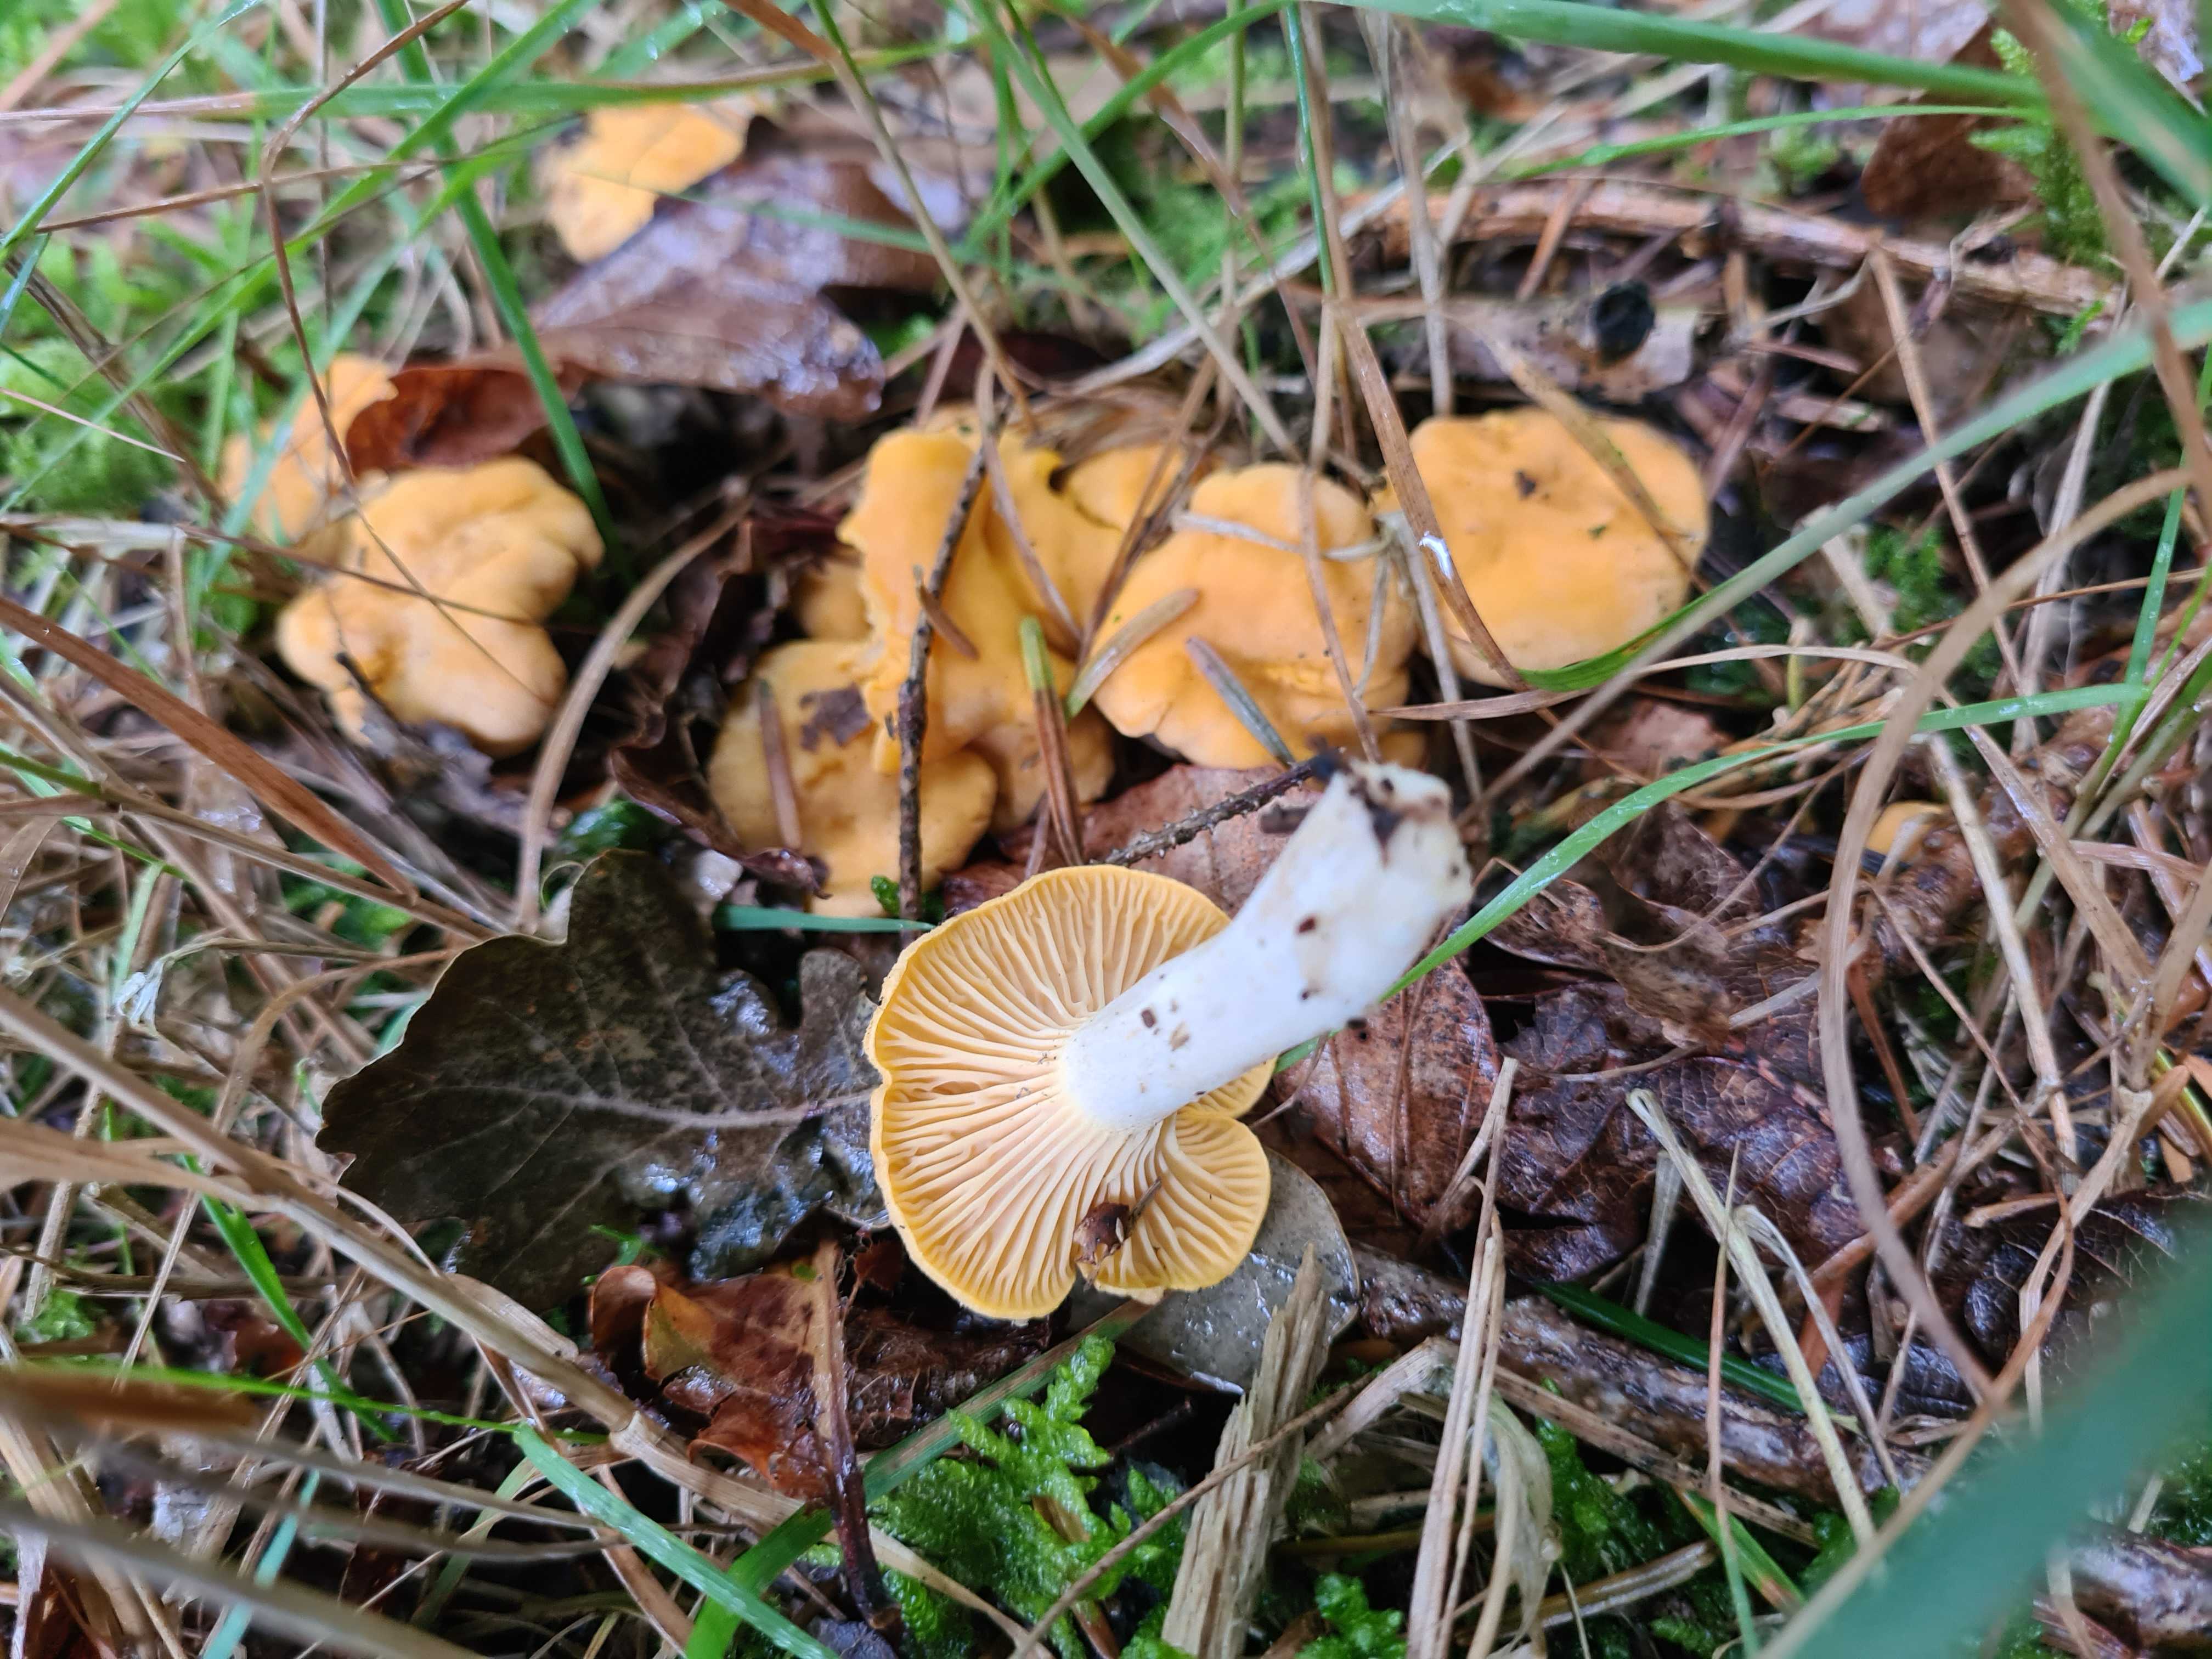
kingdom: Fungi
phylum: Basidiomycota
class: Agaricomycetes
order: Cantharellales
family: Hydnaceae
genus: Cantharellus
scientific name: Cantharellus cibarius
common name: almindelig kantarel
